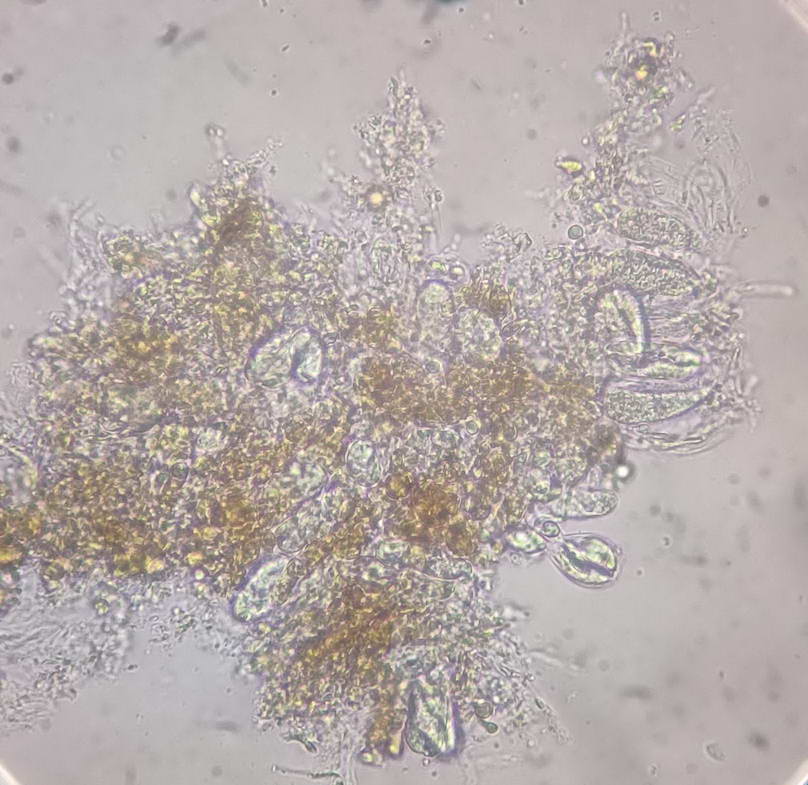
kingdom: Fungi
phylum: Basidiomycota
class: Agaricomycetes
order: Auriculariales
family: Auriculariaceae
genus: Heteroradulum
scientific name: Heteroradulum deglubens
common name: bævreskorpe
